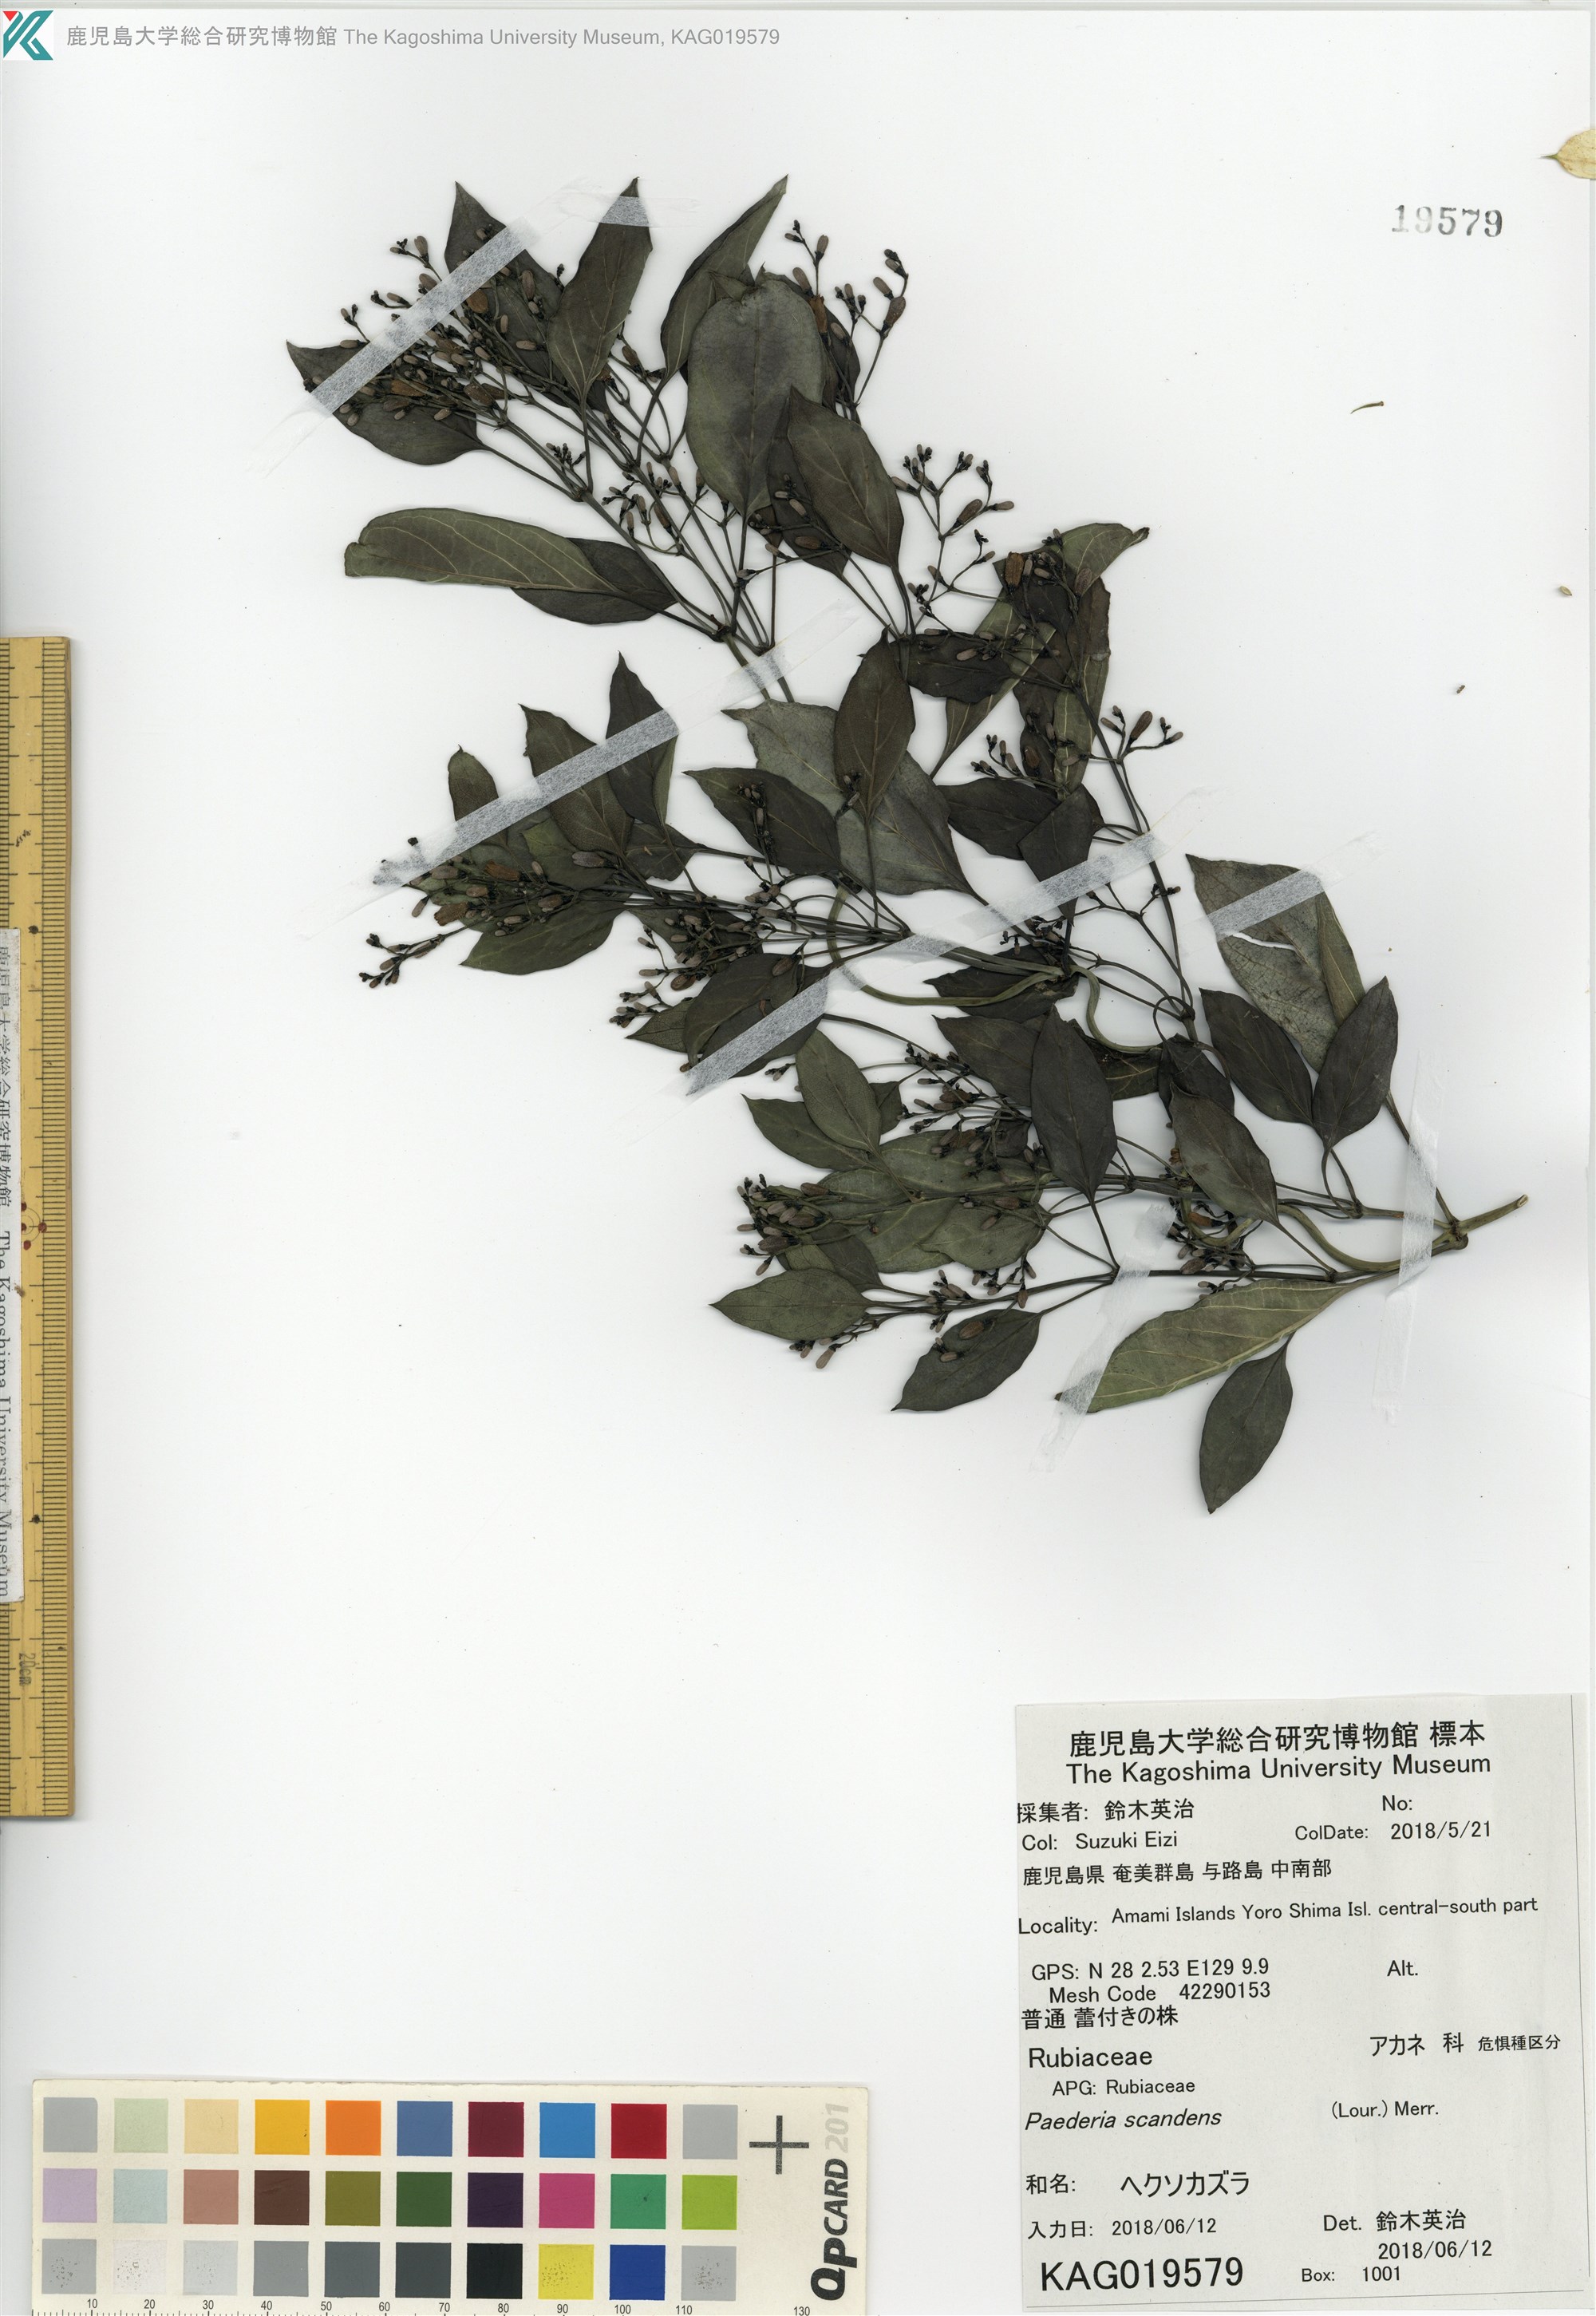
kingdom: Plantae
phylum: Tracheophyta
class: Magnoliopsida
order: Gentianales
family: Rubiaceae
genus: Paederia
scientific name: Paederia foetida
